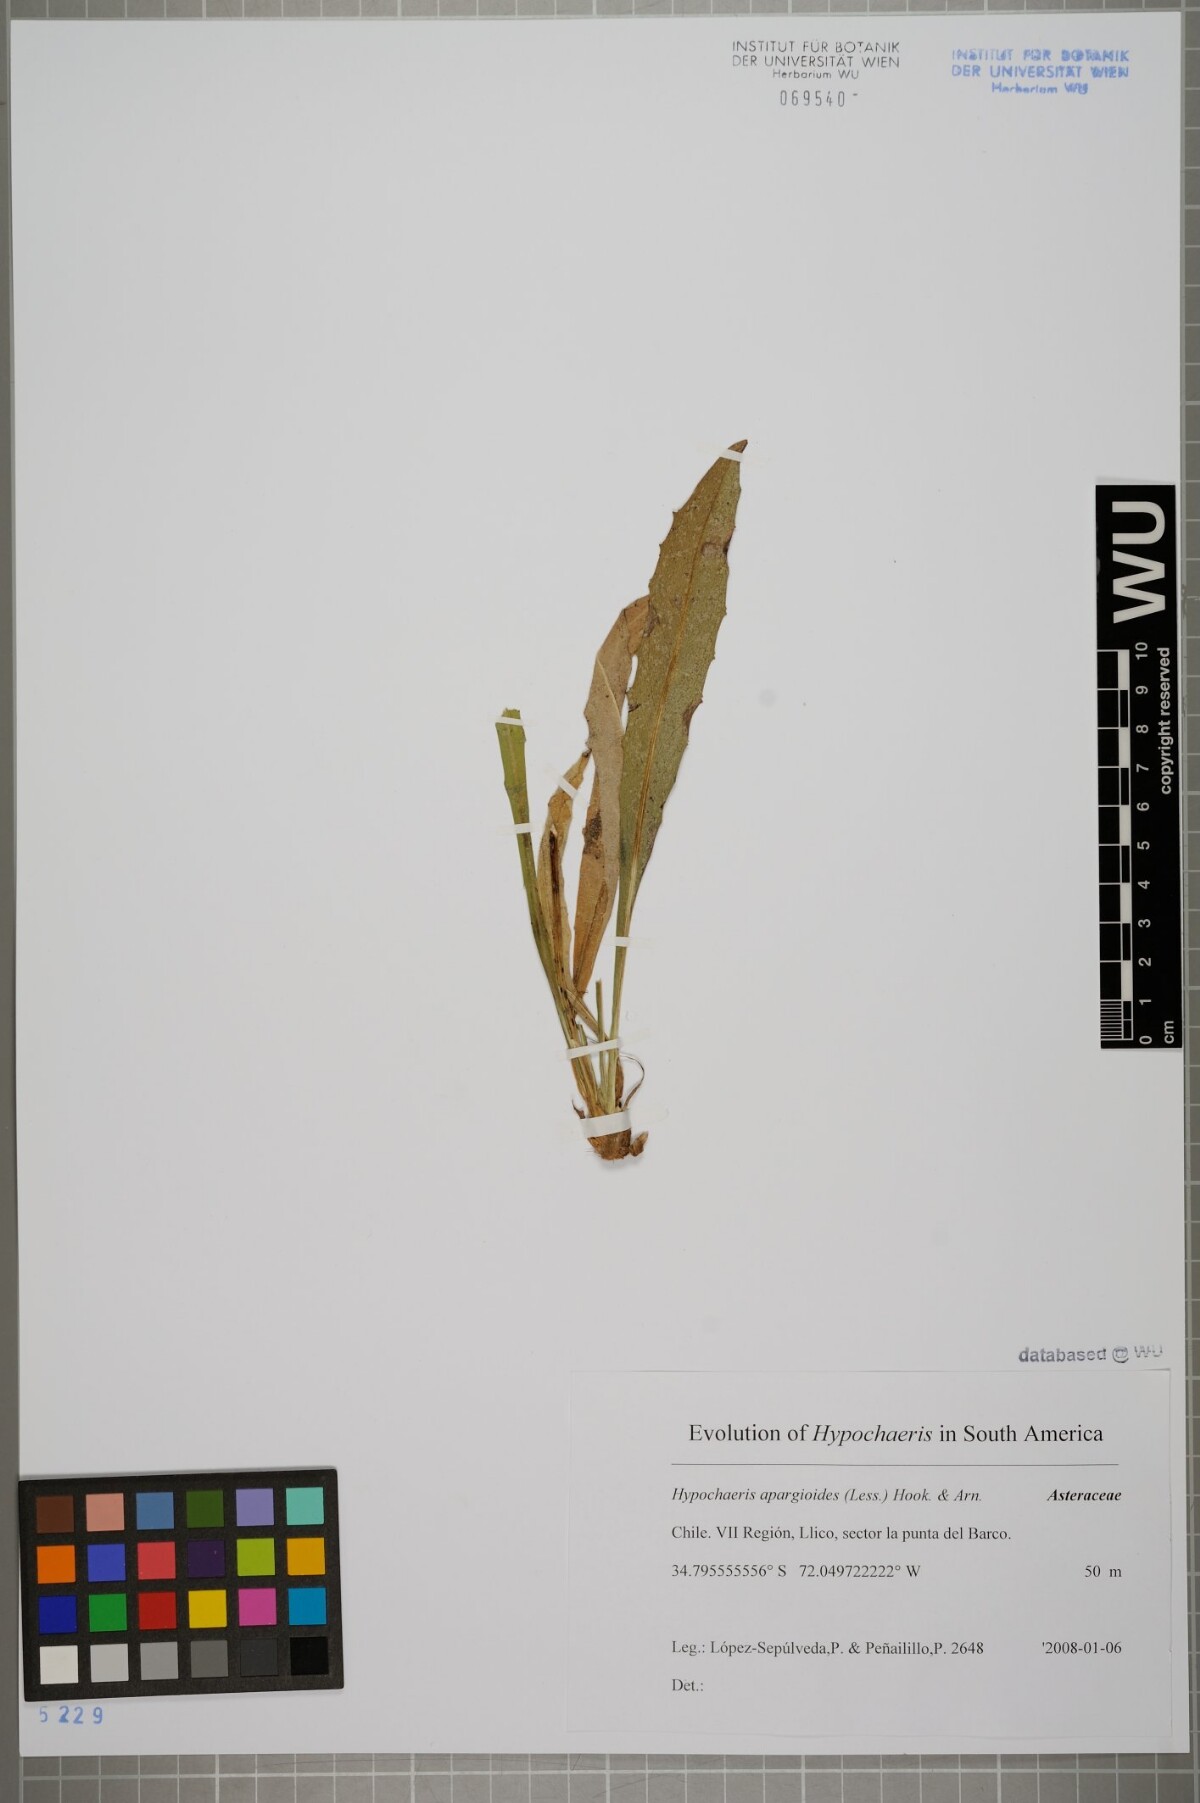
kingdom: Plantae
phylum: Tracheophyta
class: Magnoliopsida
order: Asterales
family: Asteraceae
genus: Hypochaeris
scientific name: Hypochaeris apargioides
